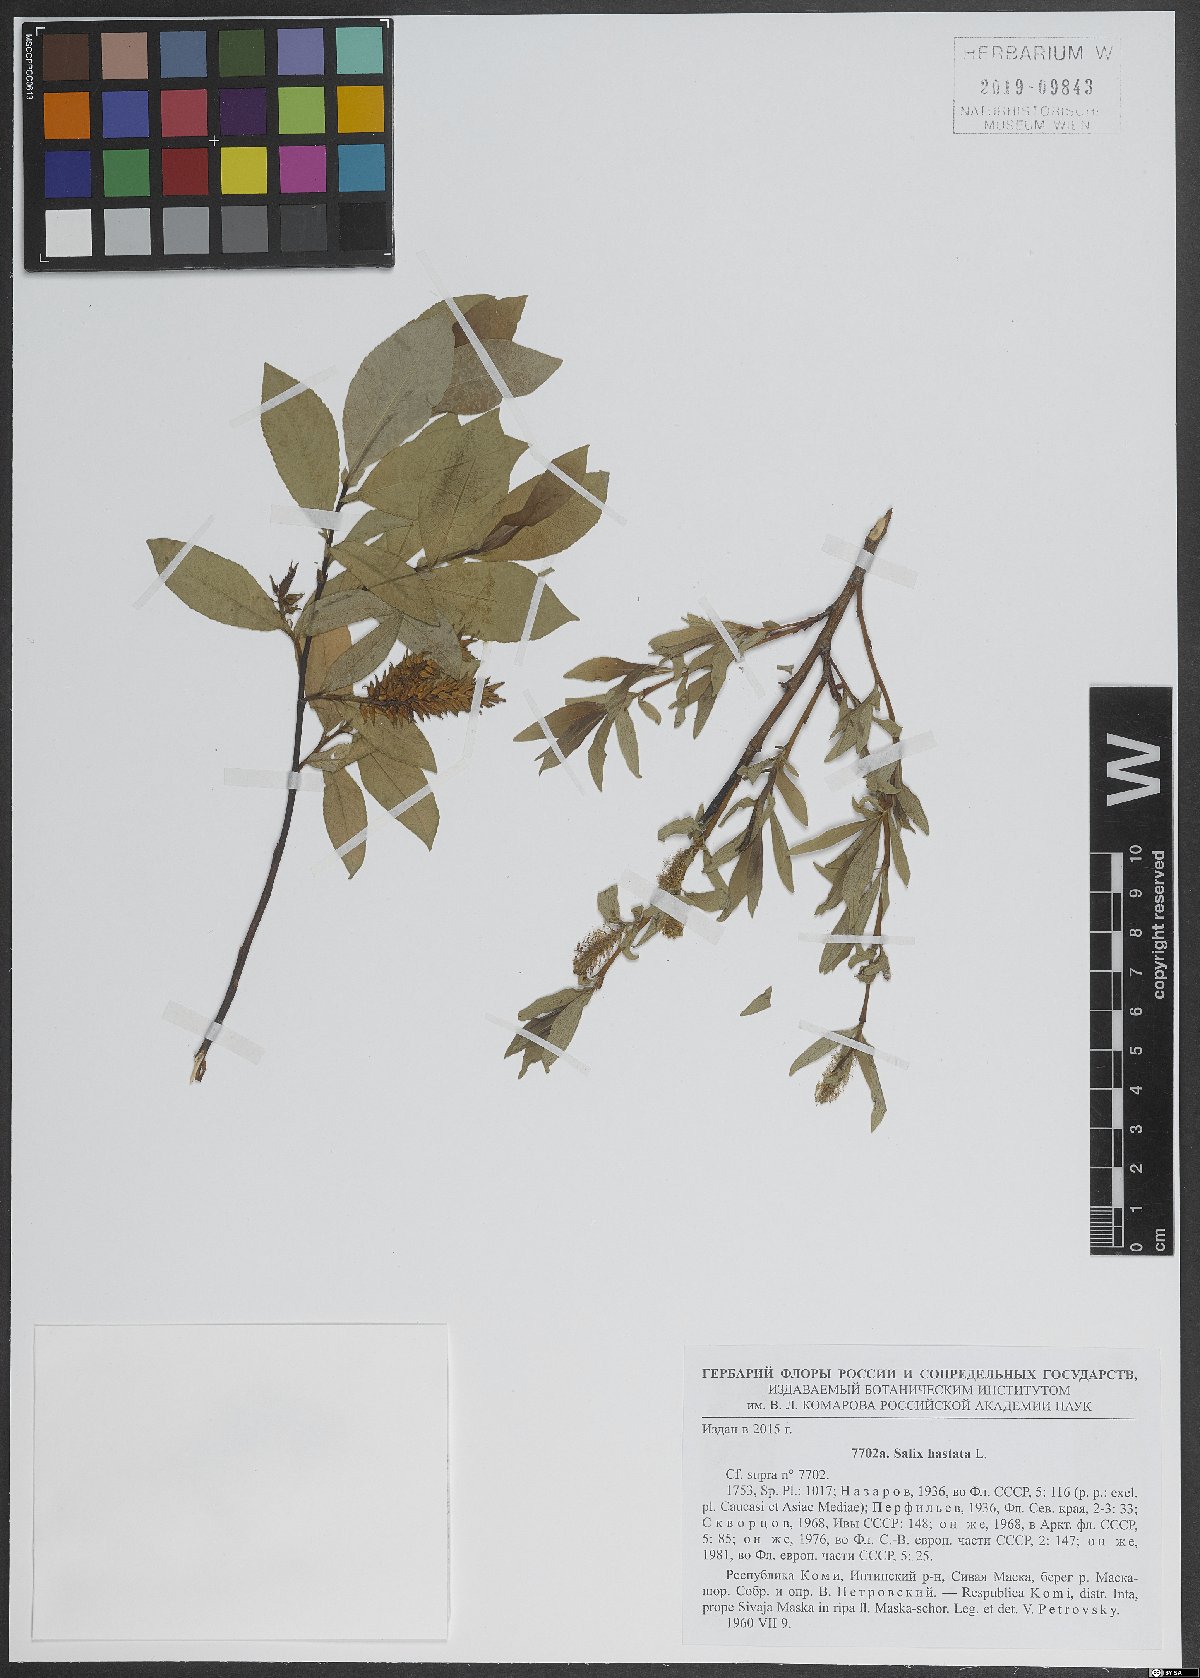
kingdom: Plantae
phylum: Tracheophyta
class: Magnoliopsida
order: Malpighiales
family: Salicaceae
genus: Salix
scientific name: Salix hastata
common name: Halberd willow
